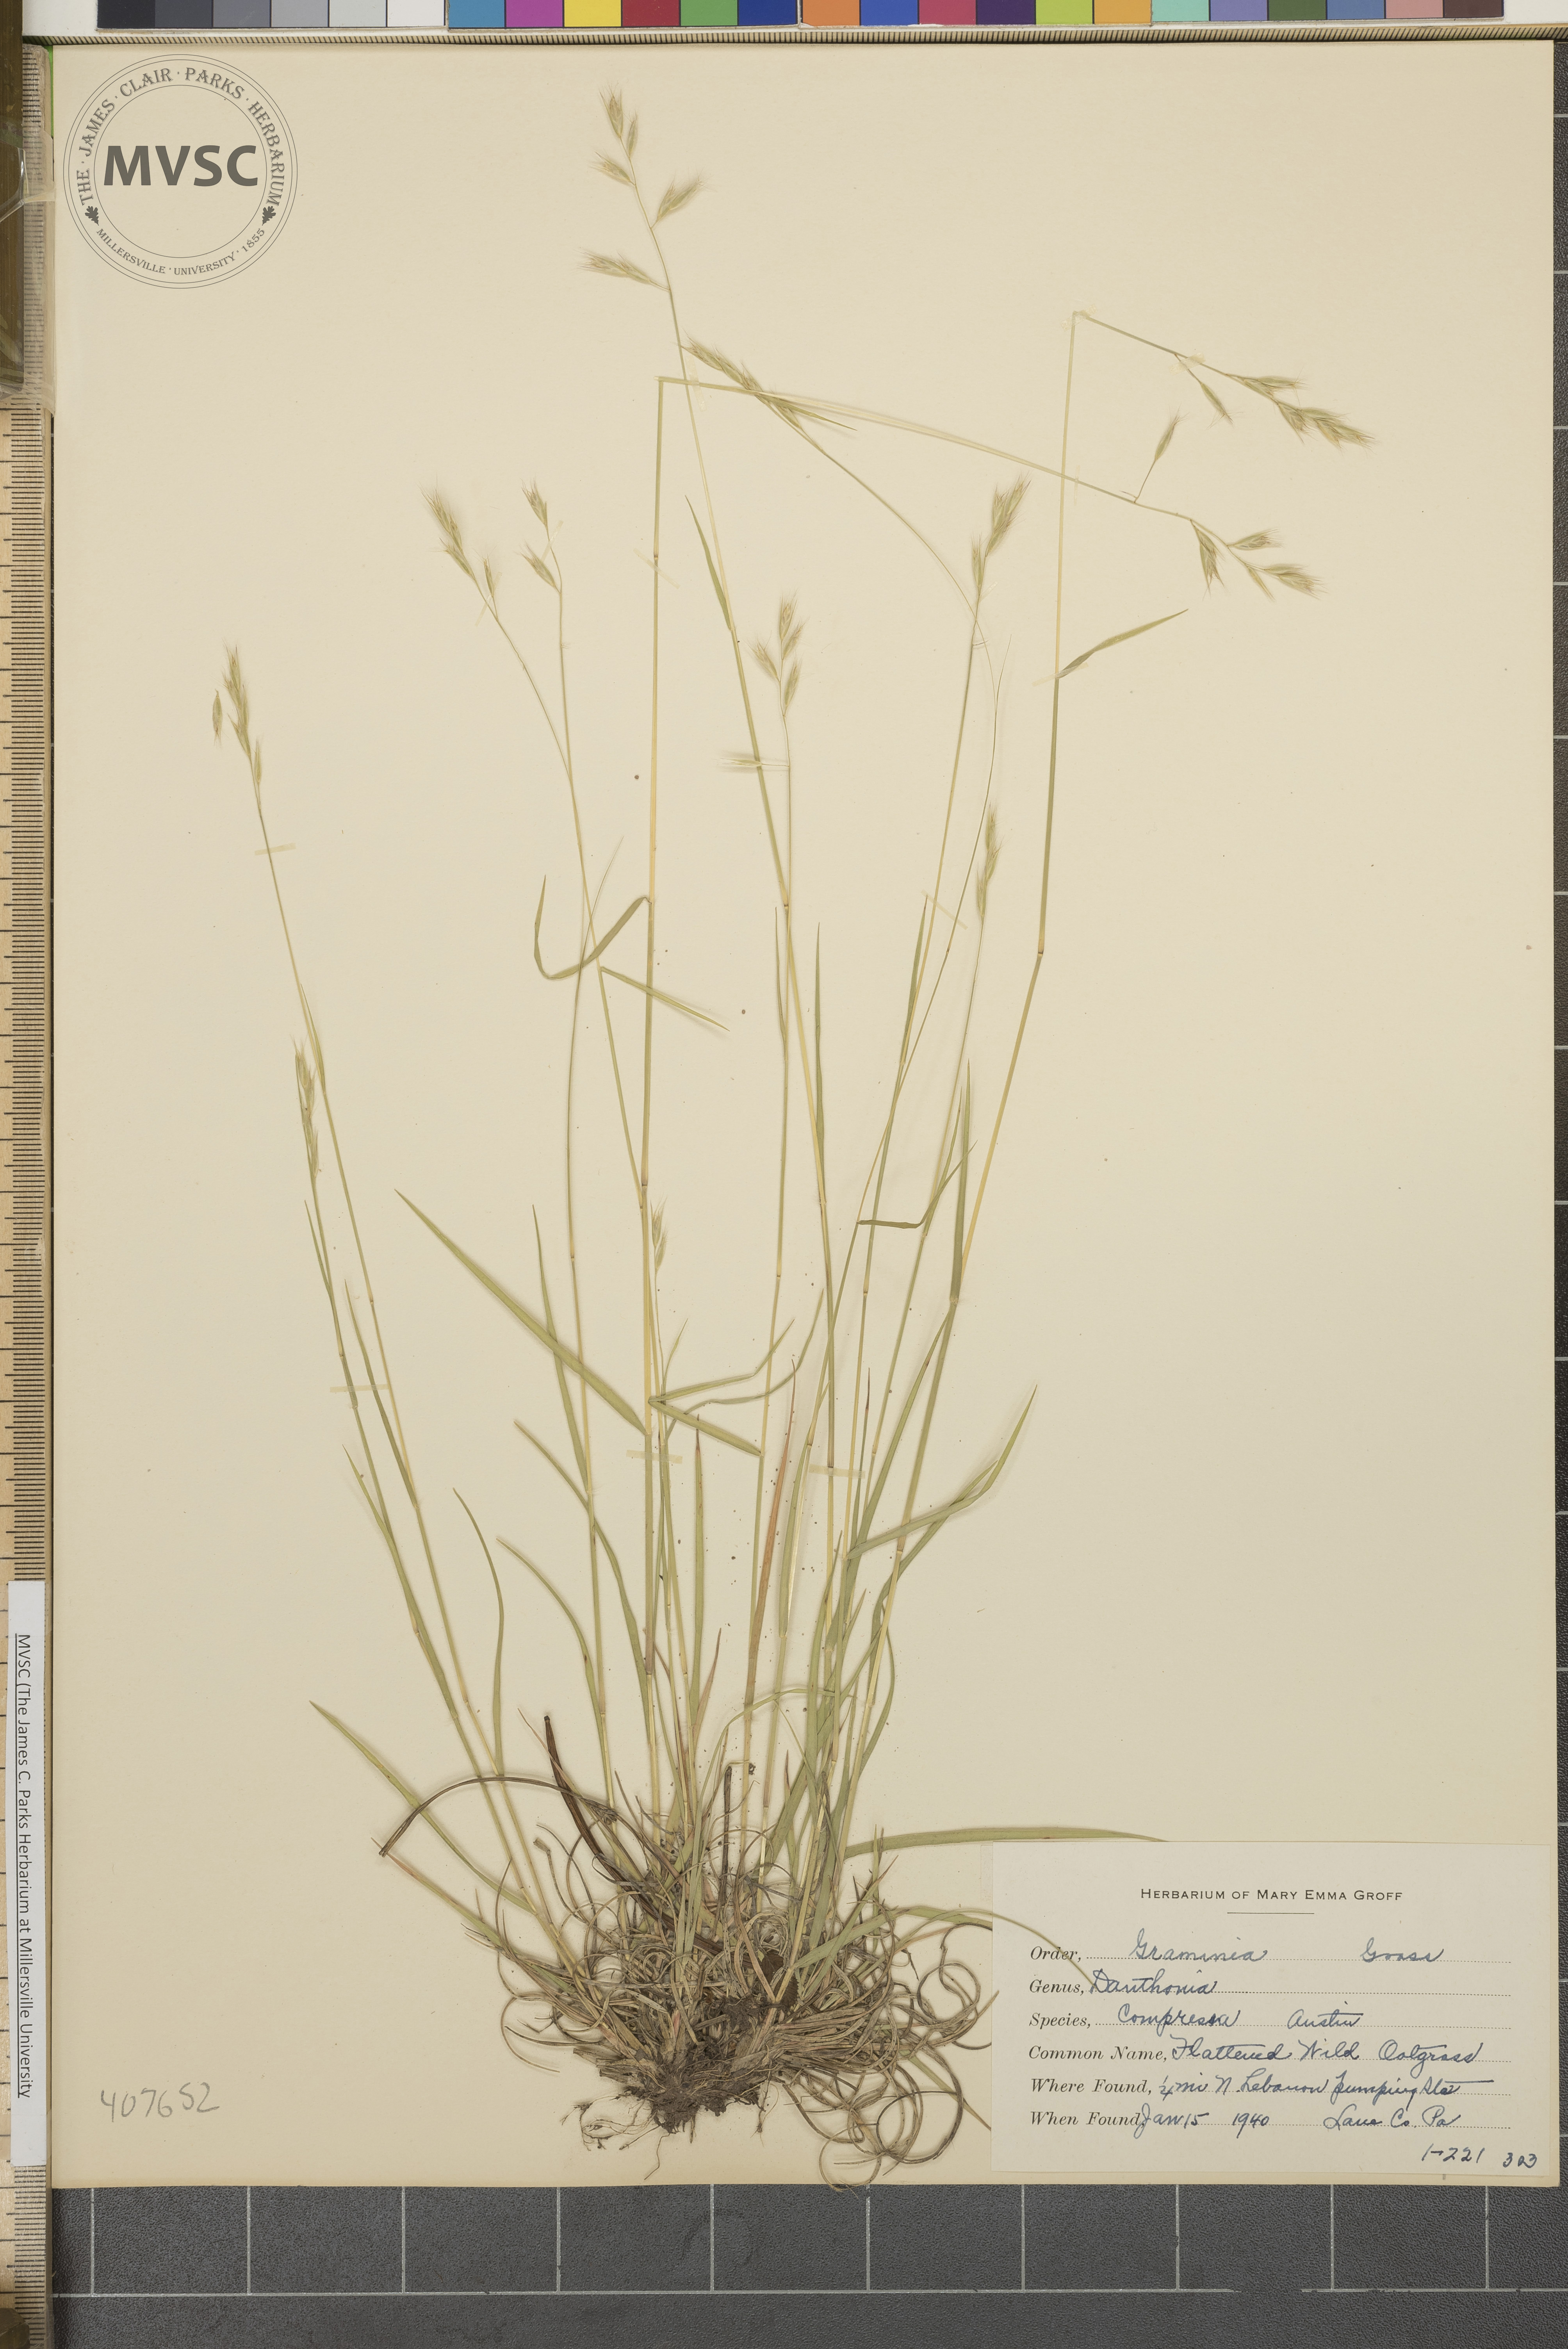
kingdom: Plantae
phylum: Tracheophyta
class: Liliopsida
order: Poales
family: Poaceae
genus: Danthonia
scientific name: Danthonia compressa
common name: Flat-stem oat grass
